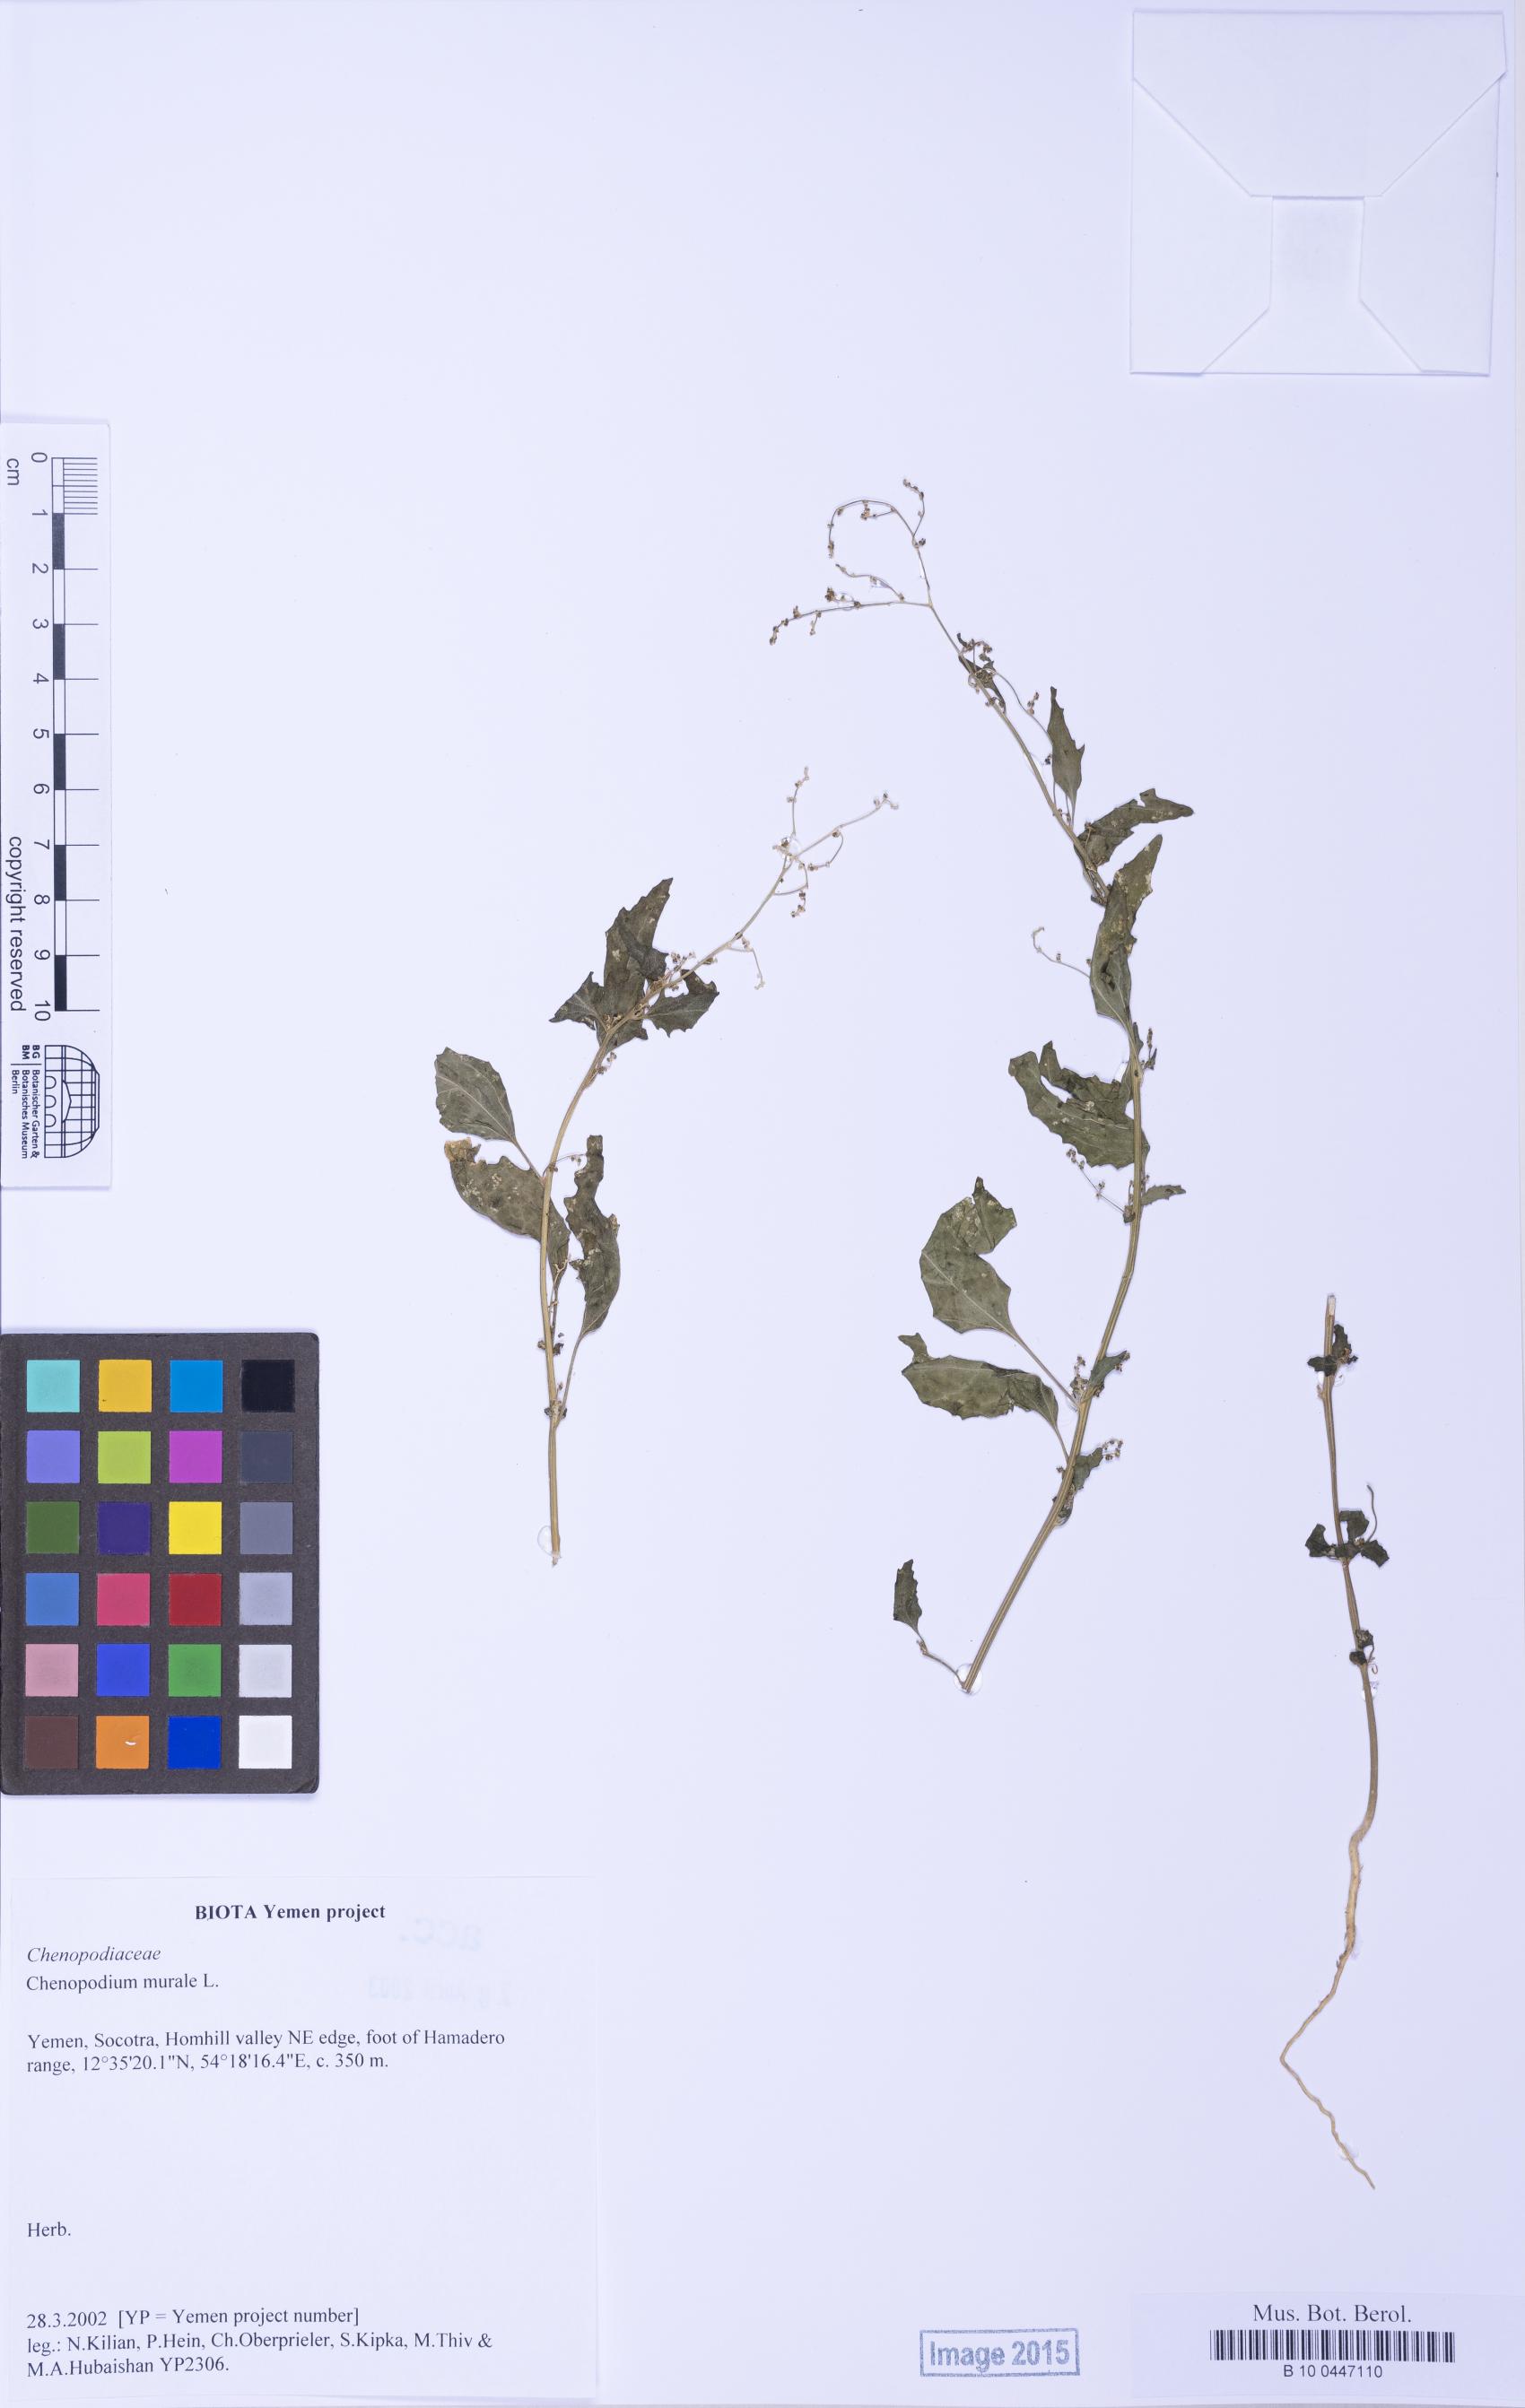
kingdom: Plantae
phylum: Tracheophyta
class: Magnoliopsida
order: Caryophyllales
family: Amaranthaceae
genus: Chenopodiastrum
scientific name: Chenopodiastrum murale
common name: Sowbane
